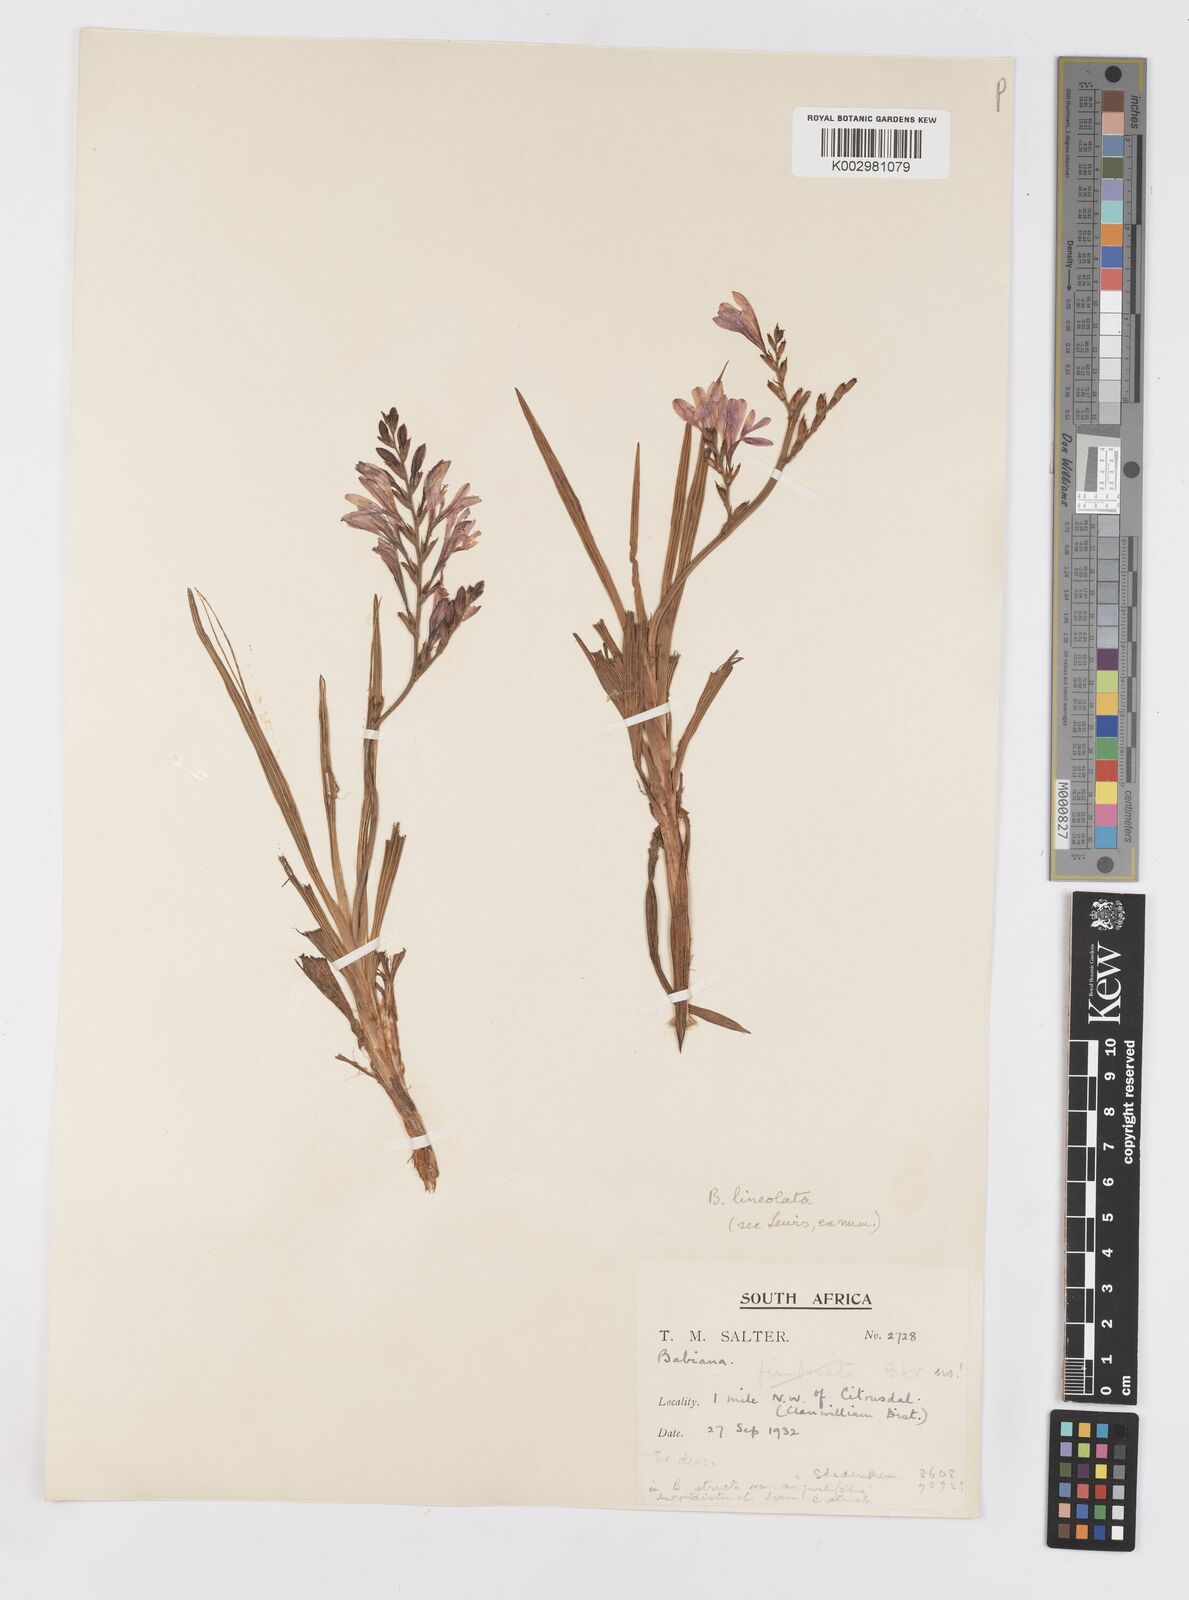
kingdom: Plantae
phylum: Tracheophyta
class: Liliopsida
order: Asparagales
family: Iridaceae
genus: Babiana
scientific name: Babiana lineolata
